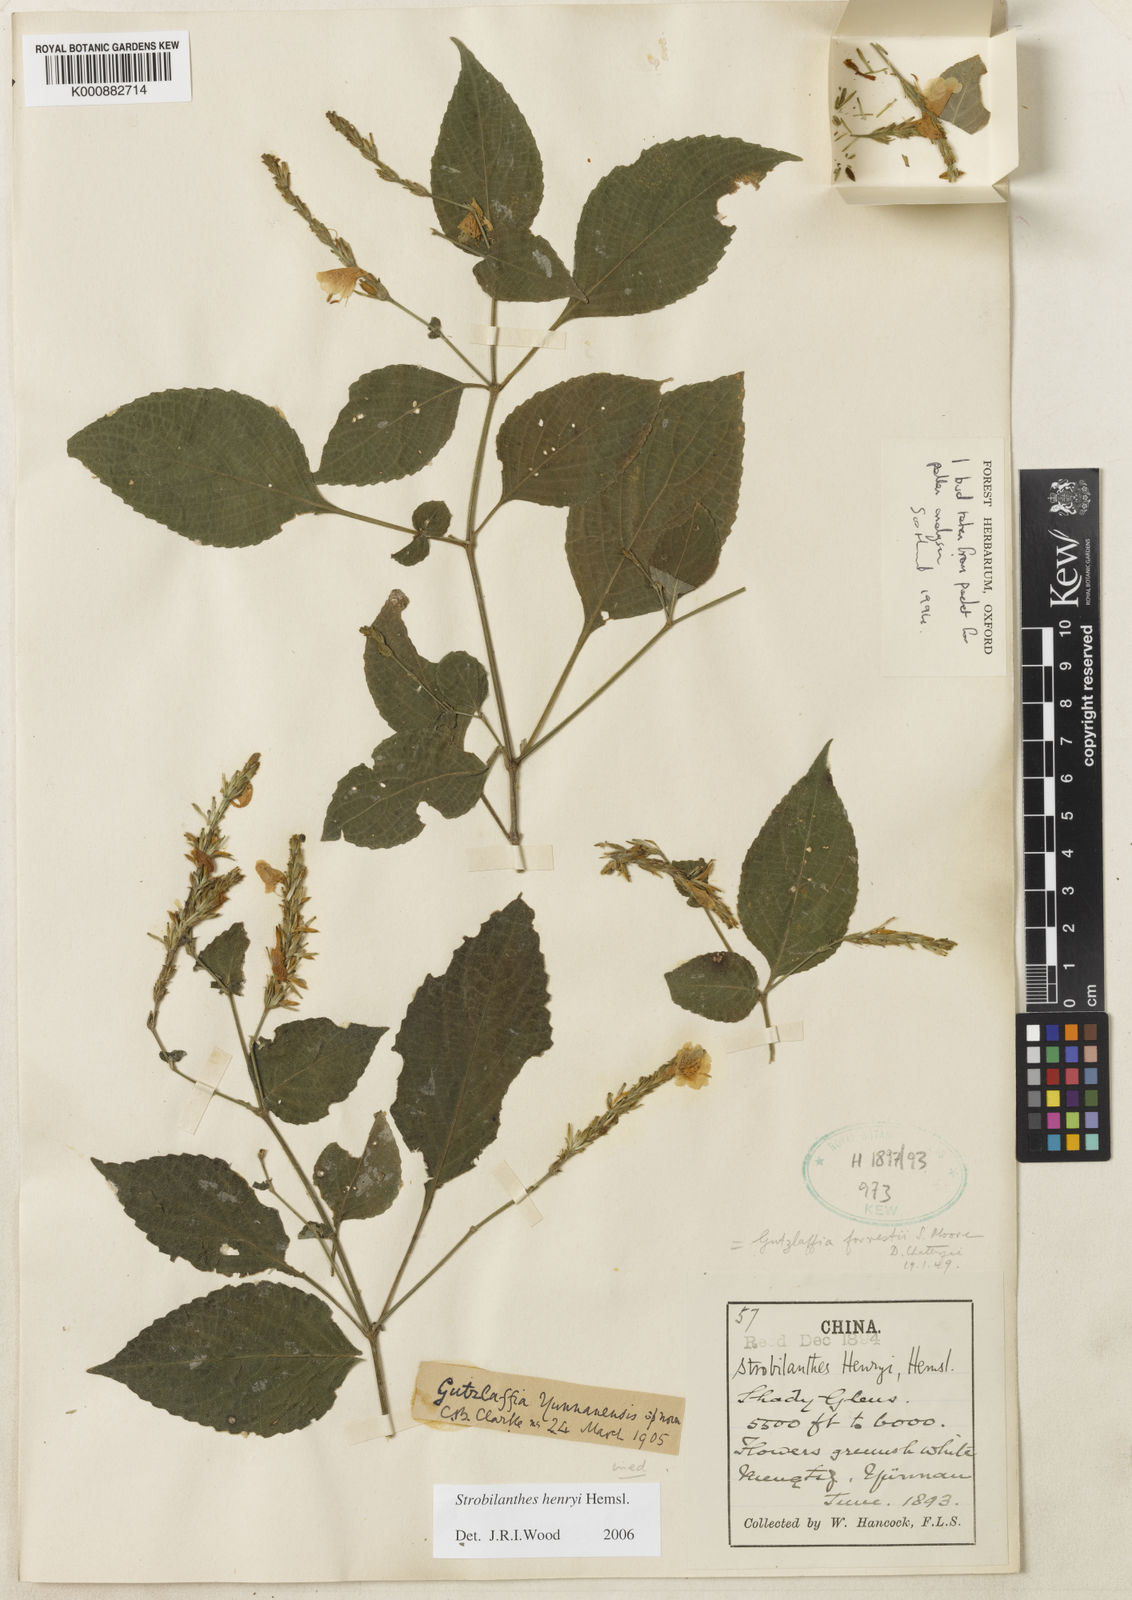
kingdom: Plantae
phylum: Tracheophyta
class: Magnoliopsida
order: Lamiales
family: Acanthaceae
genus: Strobilanthes
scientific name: Strobilanthes henryi
